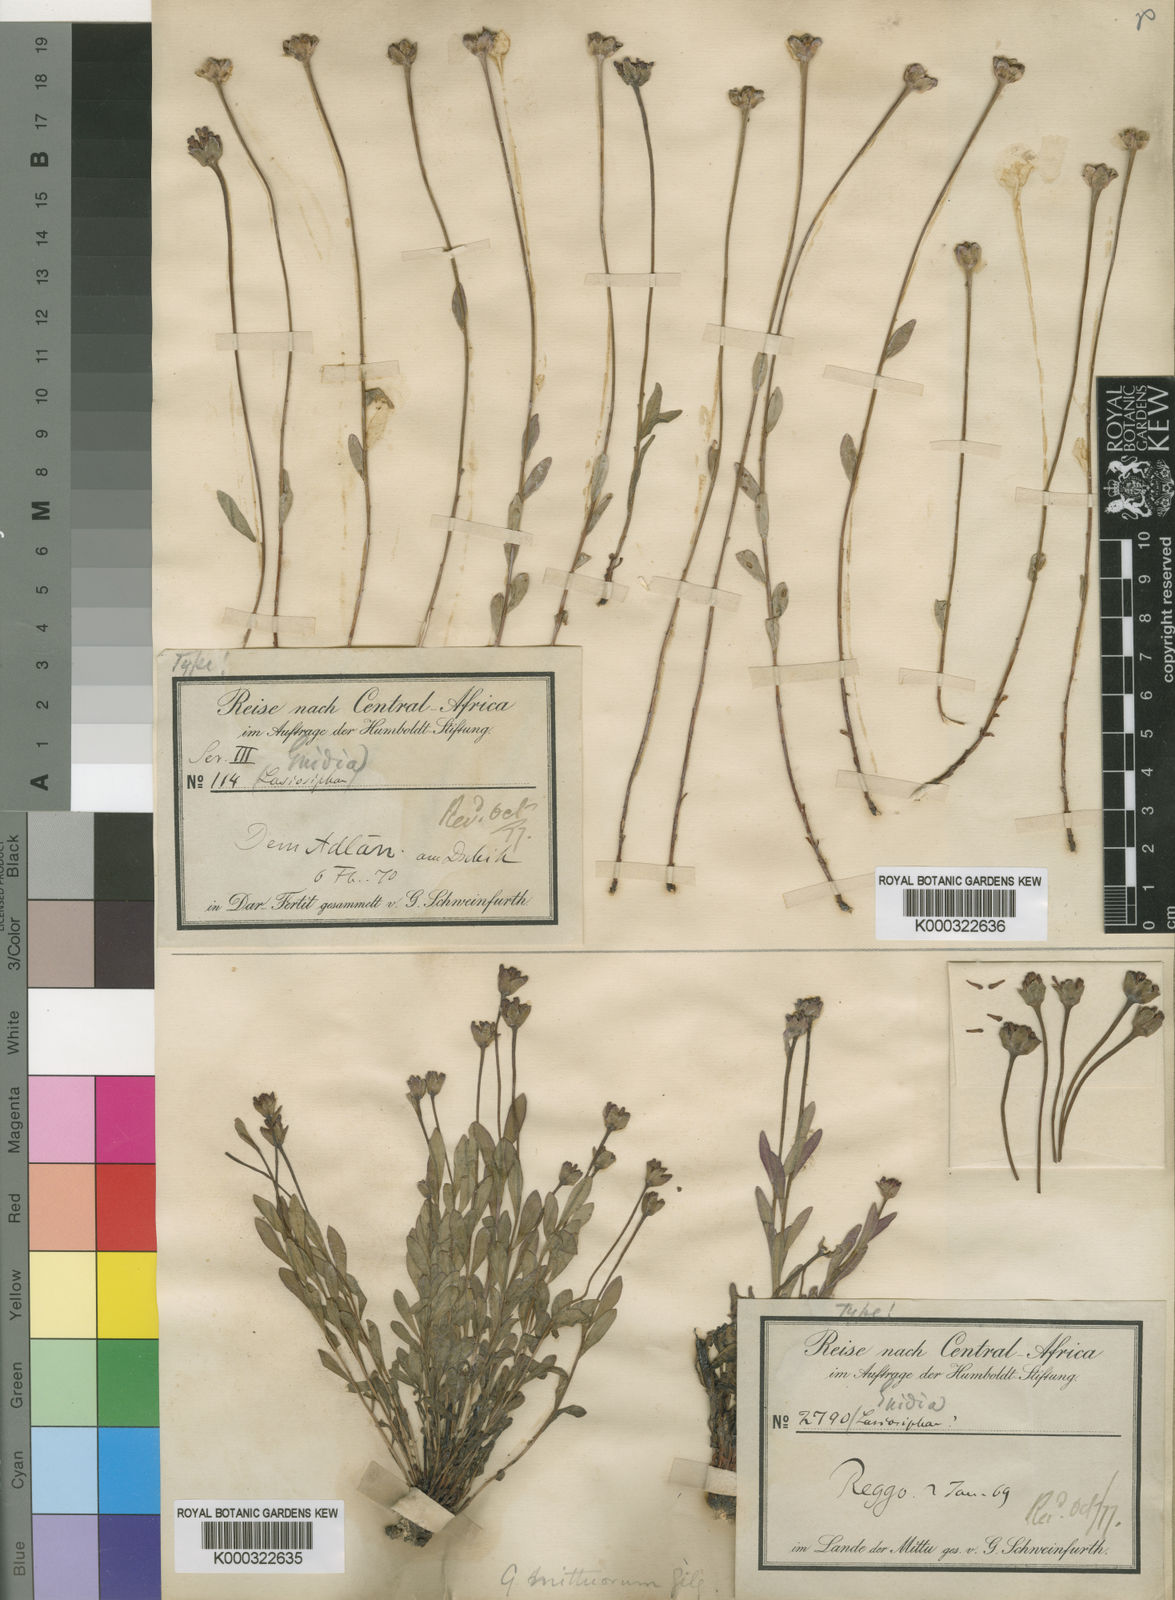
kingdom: Plantae
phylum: Tracheophyta
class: Magnoliopsida
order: Malvales
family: Thymelaeaceae
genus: Gnidia
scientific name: Gnidia involucrata
